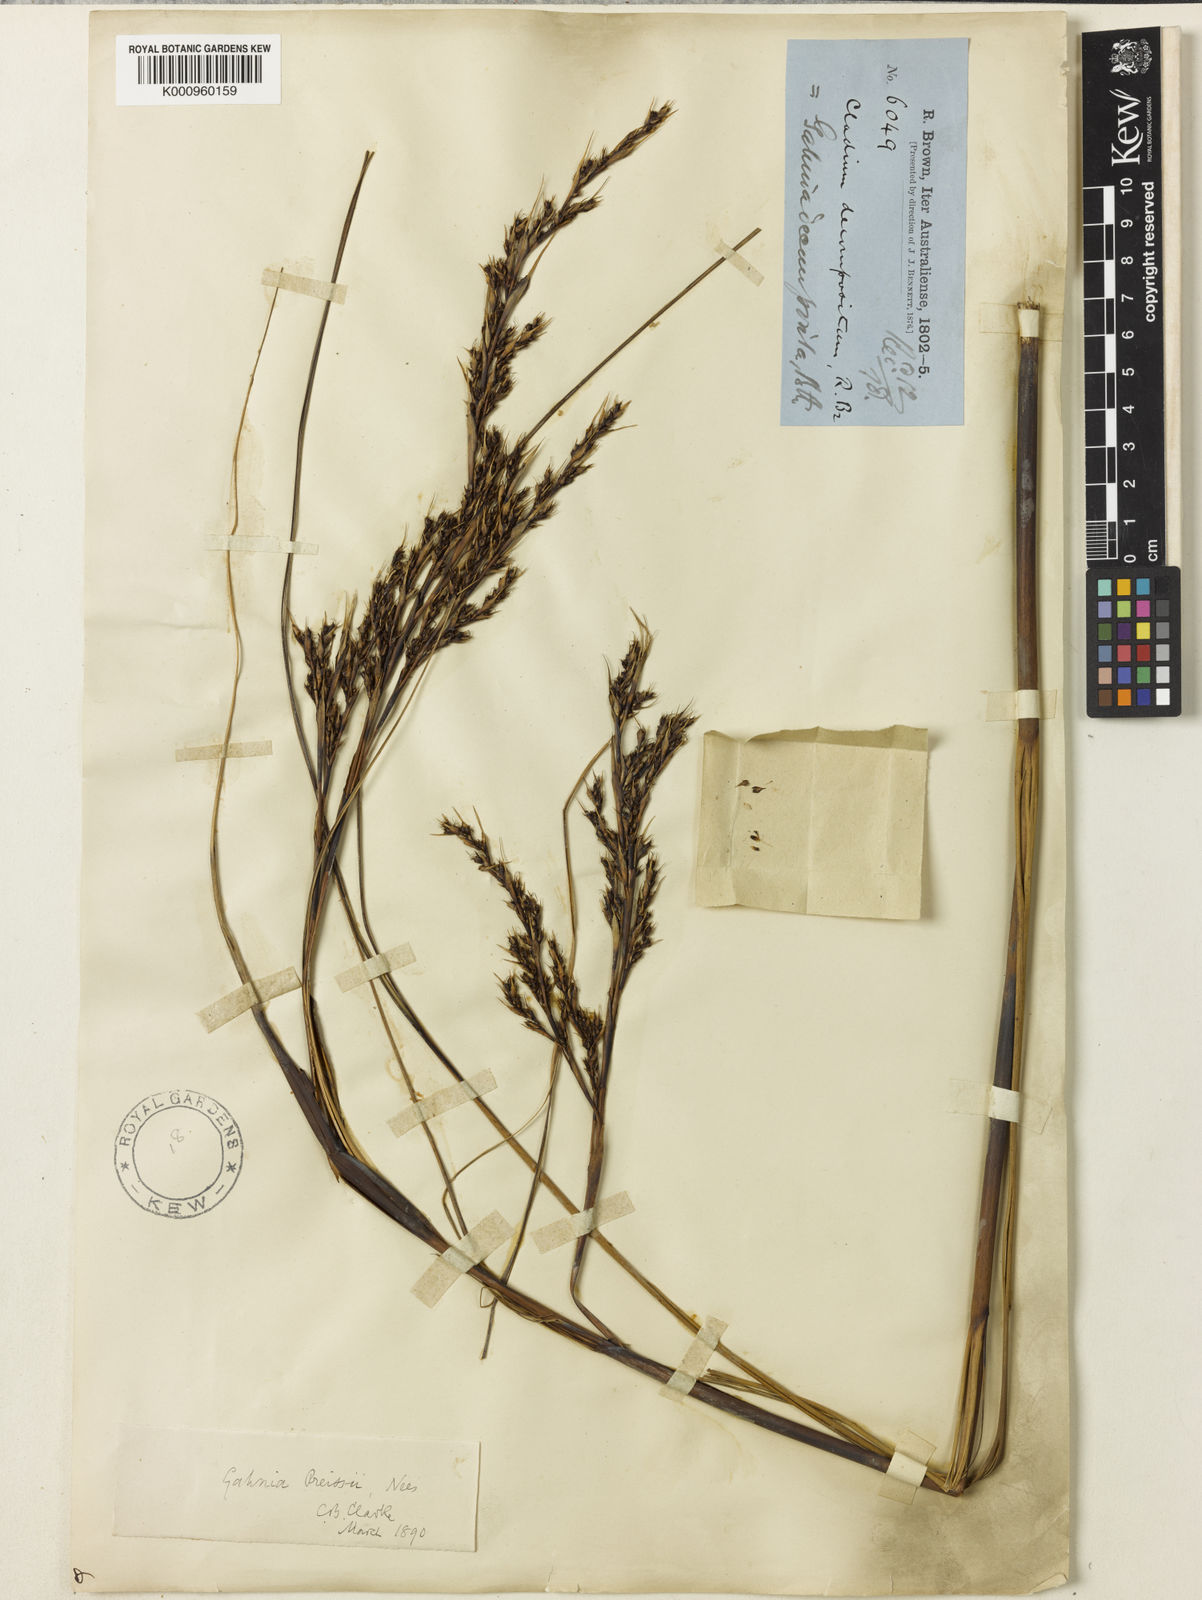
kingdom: Plantae
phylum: Tracheophyta
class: Liliopsida
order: Poales
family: Cyperaceae
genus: Gahnia
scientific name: Gahnia decomposita
